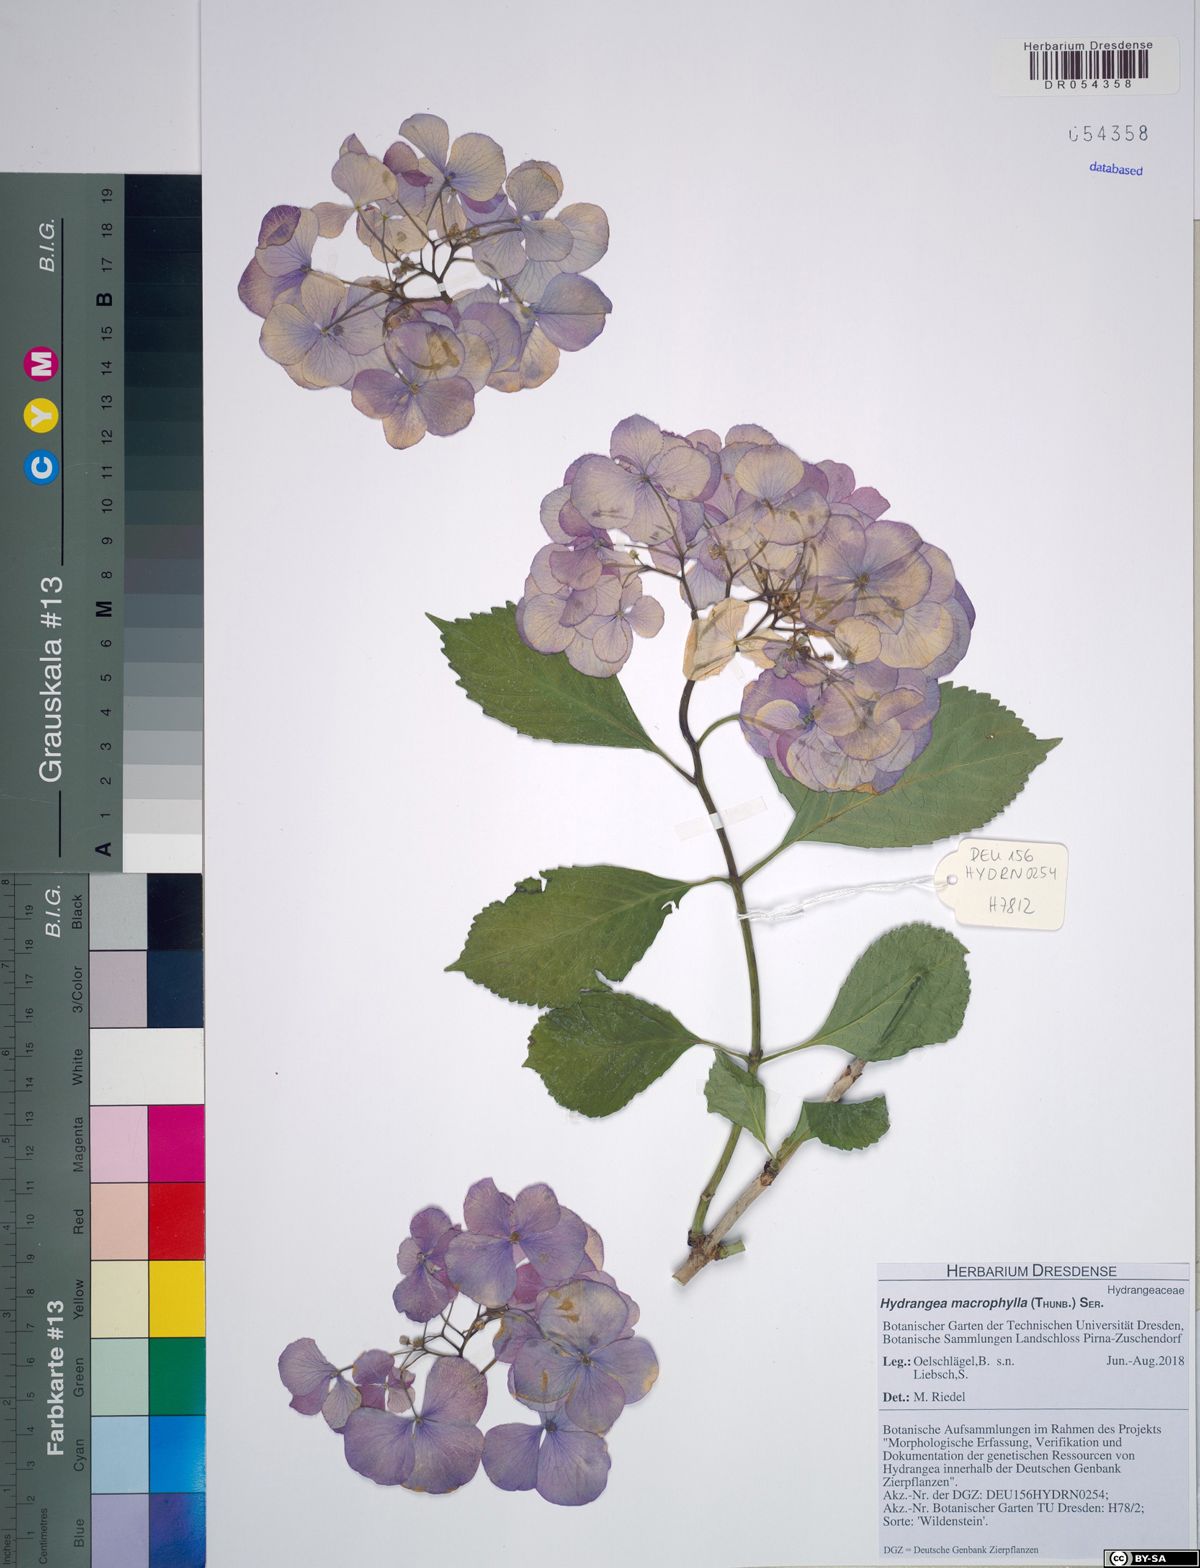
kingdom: Plantae
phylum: Tracheophyta
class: Magnoliopsida
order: Cornales
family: Hydrangeaceae
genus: Hydrangea
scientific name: Hydrangea macrophylla
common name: Hydrangea
